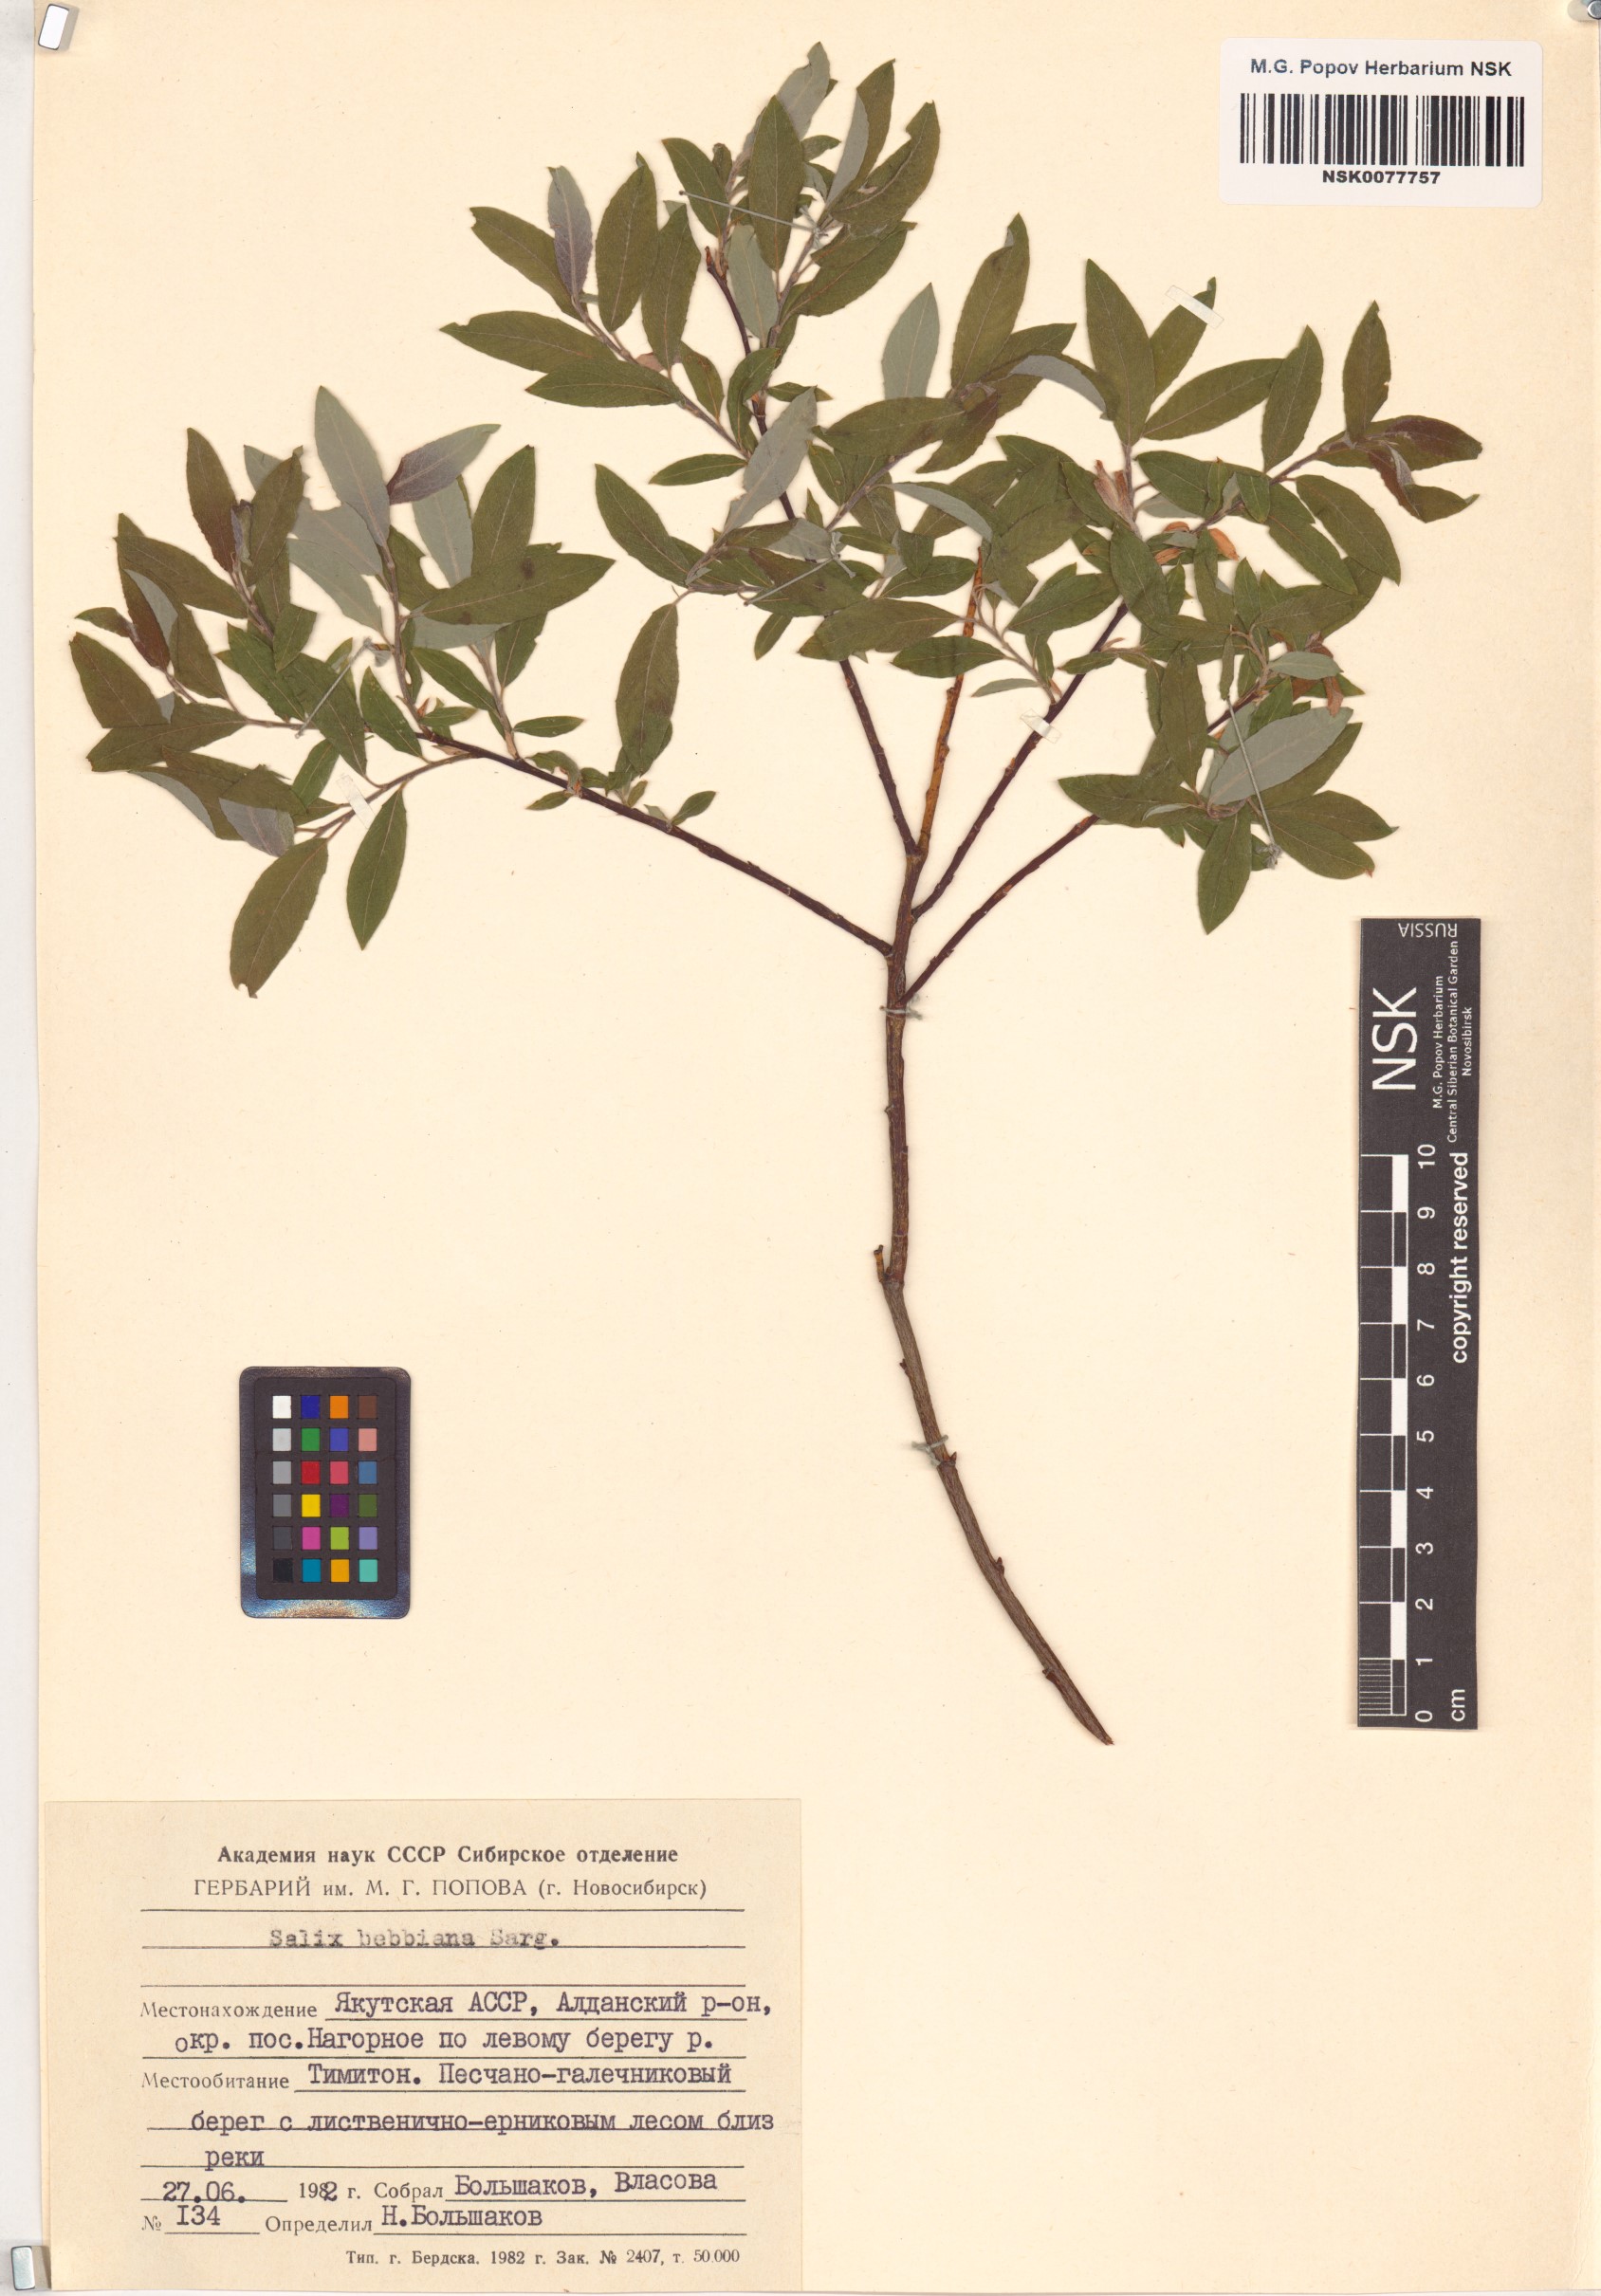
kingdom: Plantae
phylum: Tracheophyta
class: Magnoliopsida
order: Malpighiales
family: Salicaceae
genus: Salix
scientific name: Salix bebbiana
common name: Bebb's willow
